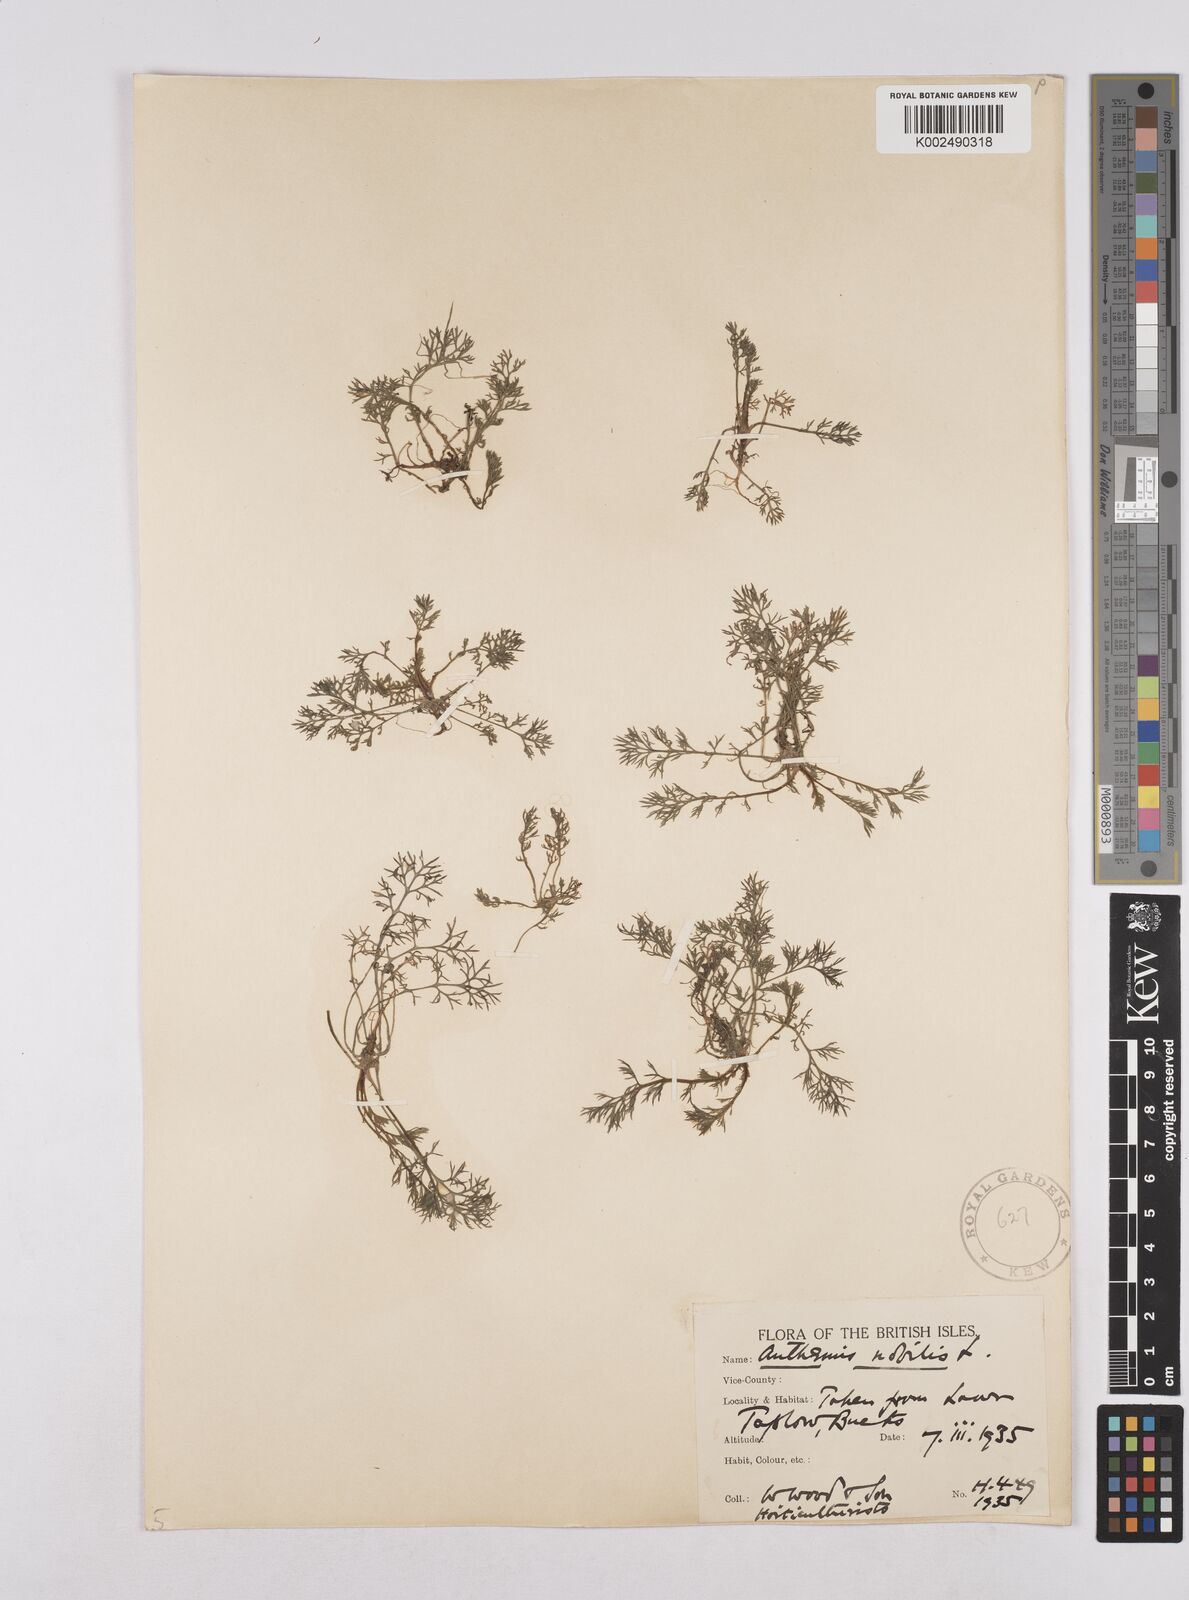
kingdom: Plantae
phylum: Tracheophyta
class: Magnoliopsida
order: Asterales
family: Asteraceae
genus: Chamaemelum
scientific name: Chamaemelum nobile
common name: Roman chamomile
